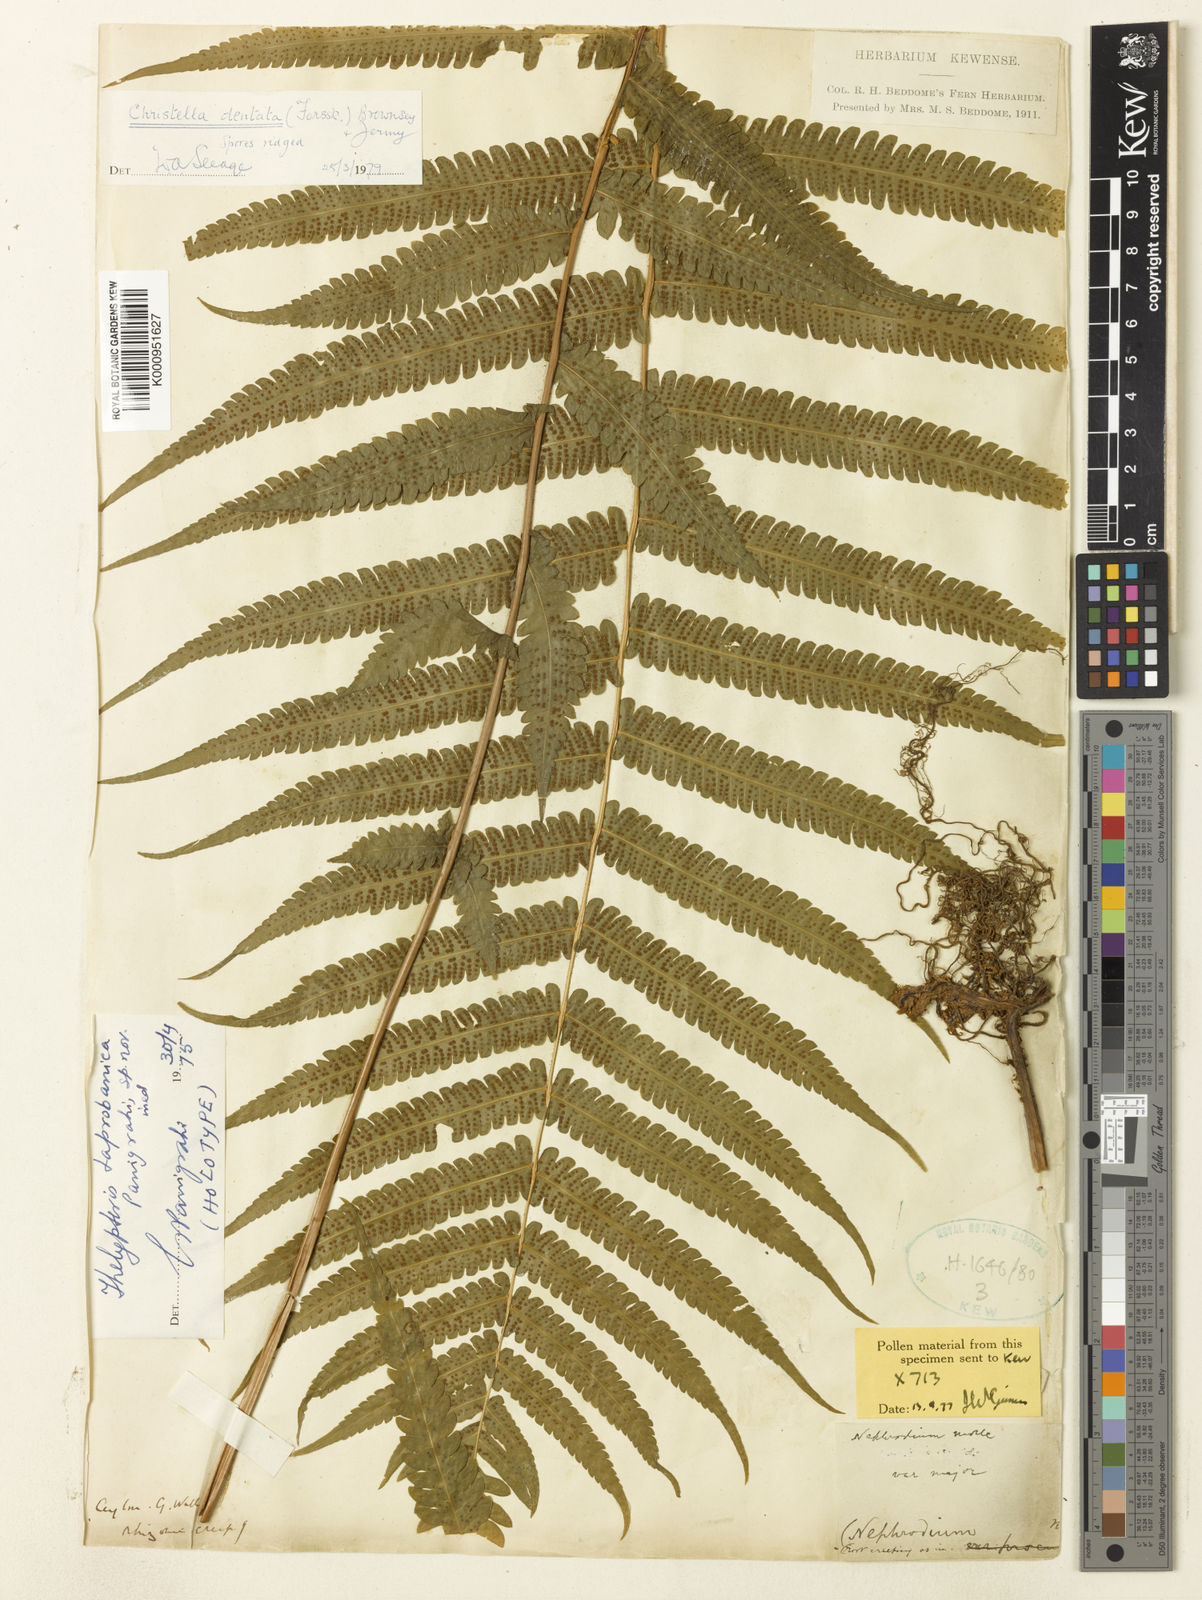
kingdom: Plantae
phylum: Tracheophyta
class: Polypodiopsida
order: Polypodiales
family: Thelypteridaceae
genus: Christella
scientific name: Christella dentata
